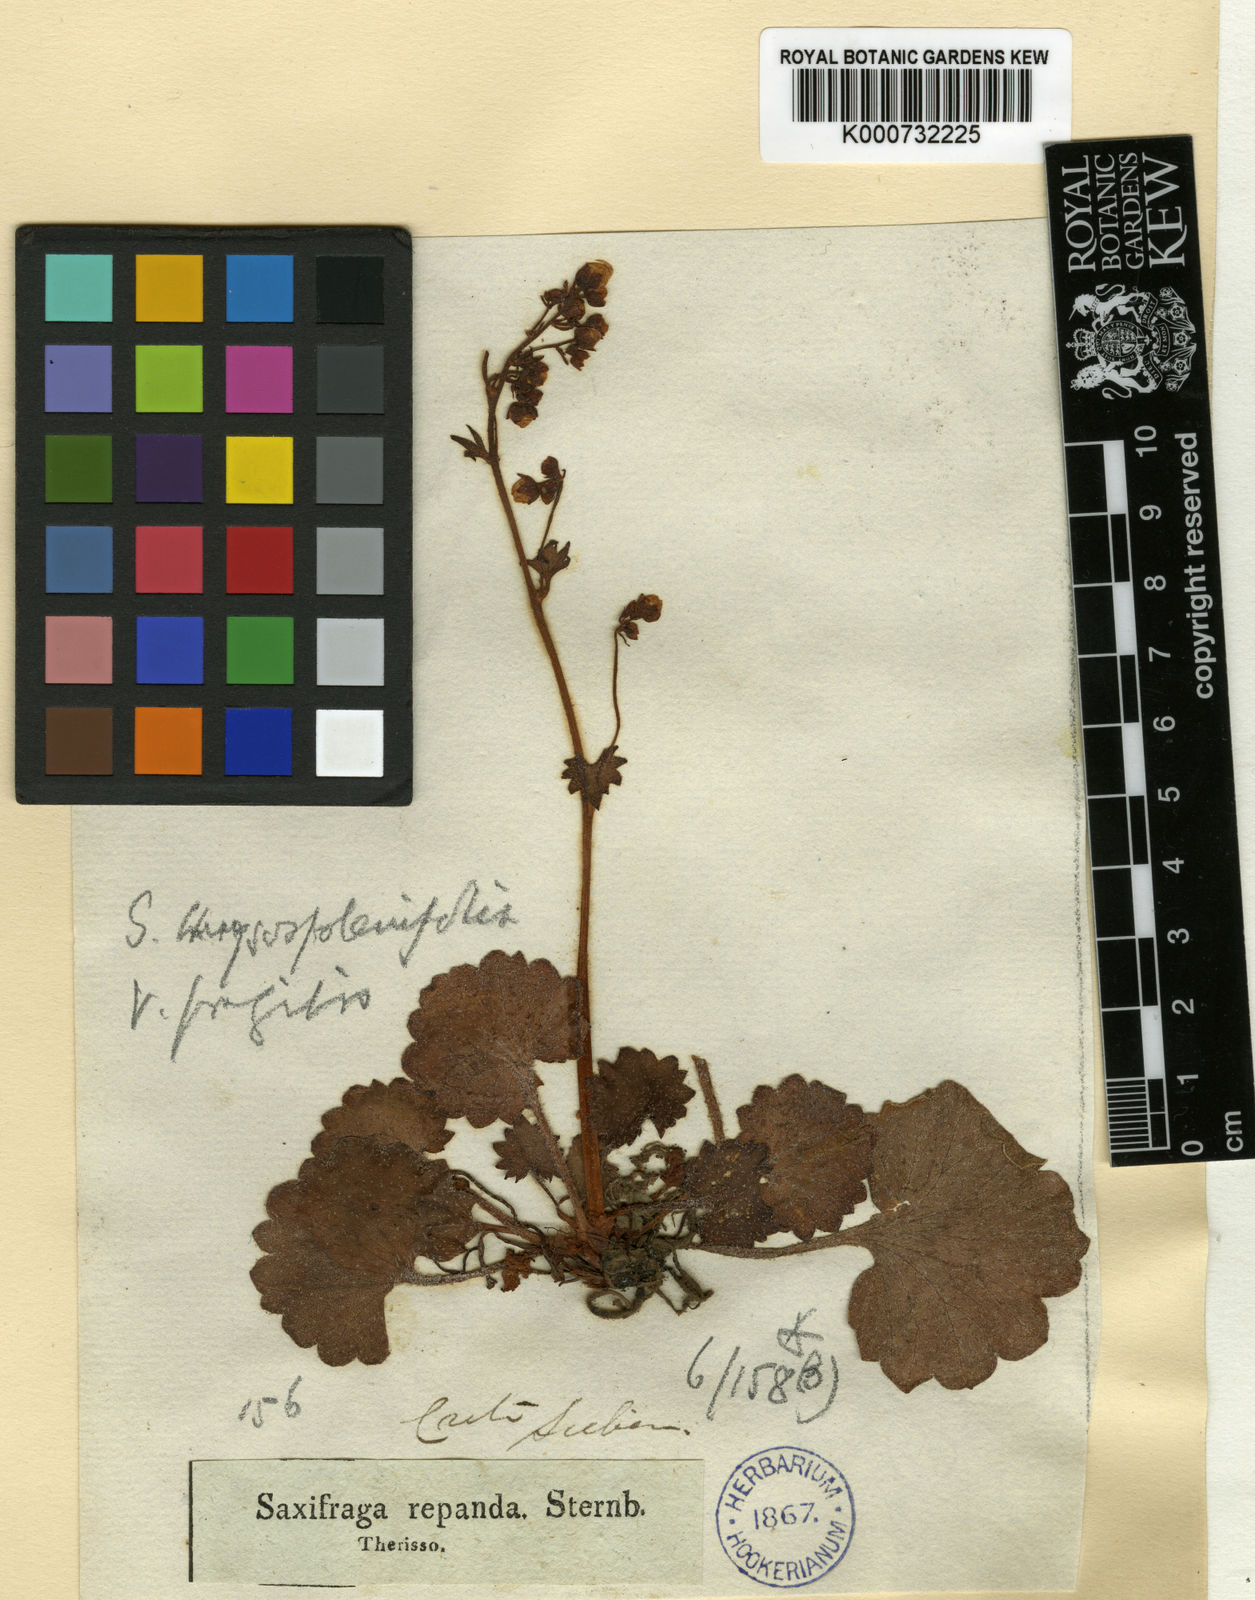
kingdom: Plantae
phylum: Tracheophyta
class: Magnoliopsida
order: Saxifragales
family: Saxifragaceae
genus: Saxifraga
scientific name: Saxifraga rotundifolia
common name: Round-leaved saxifrage
